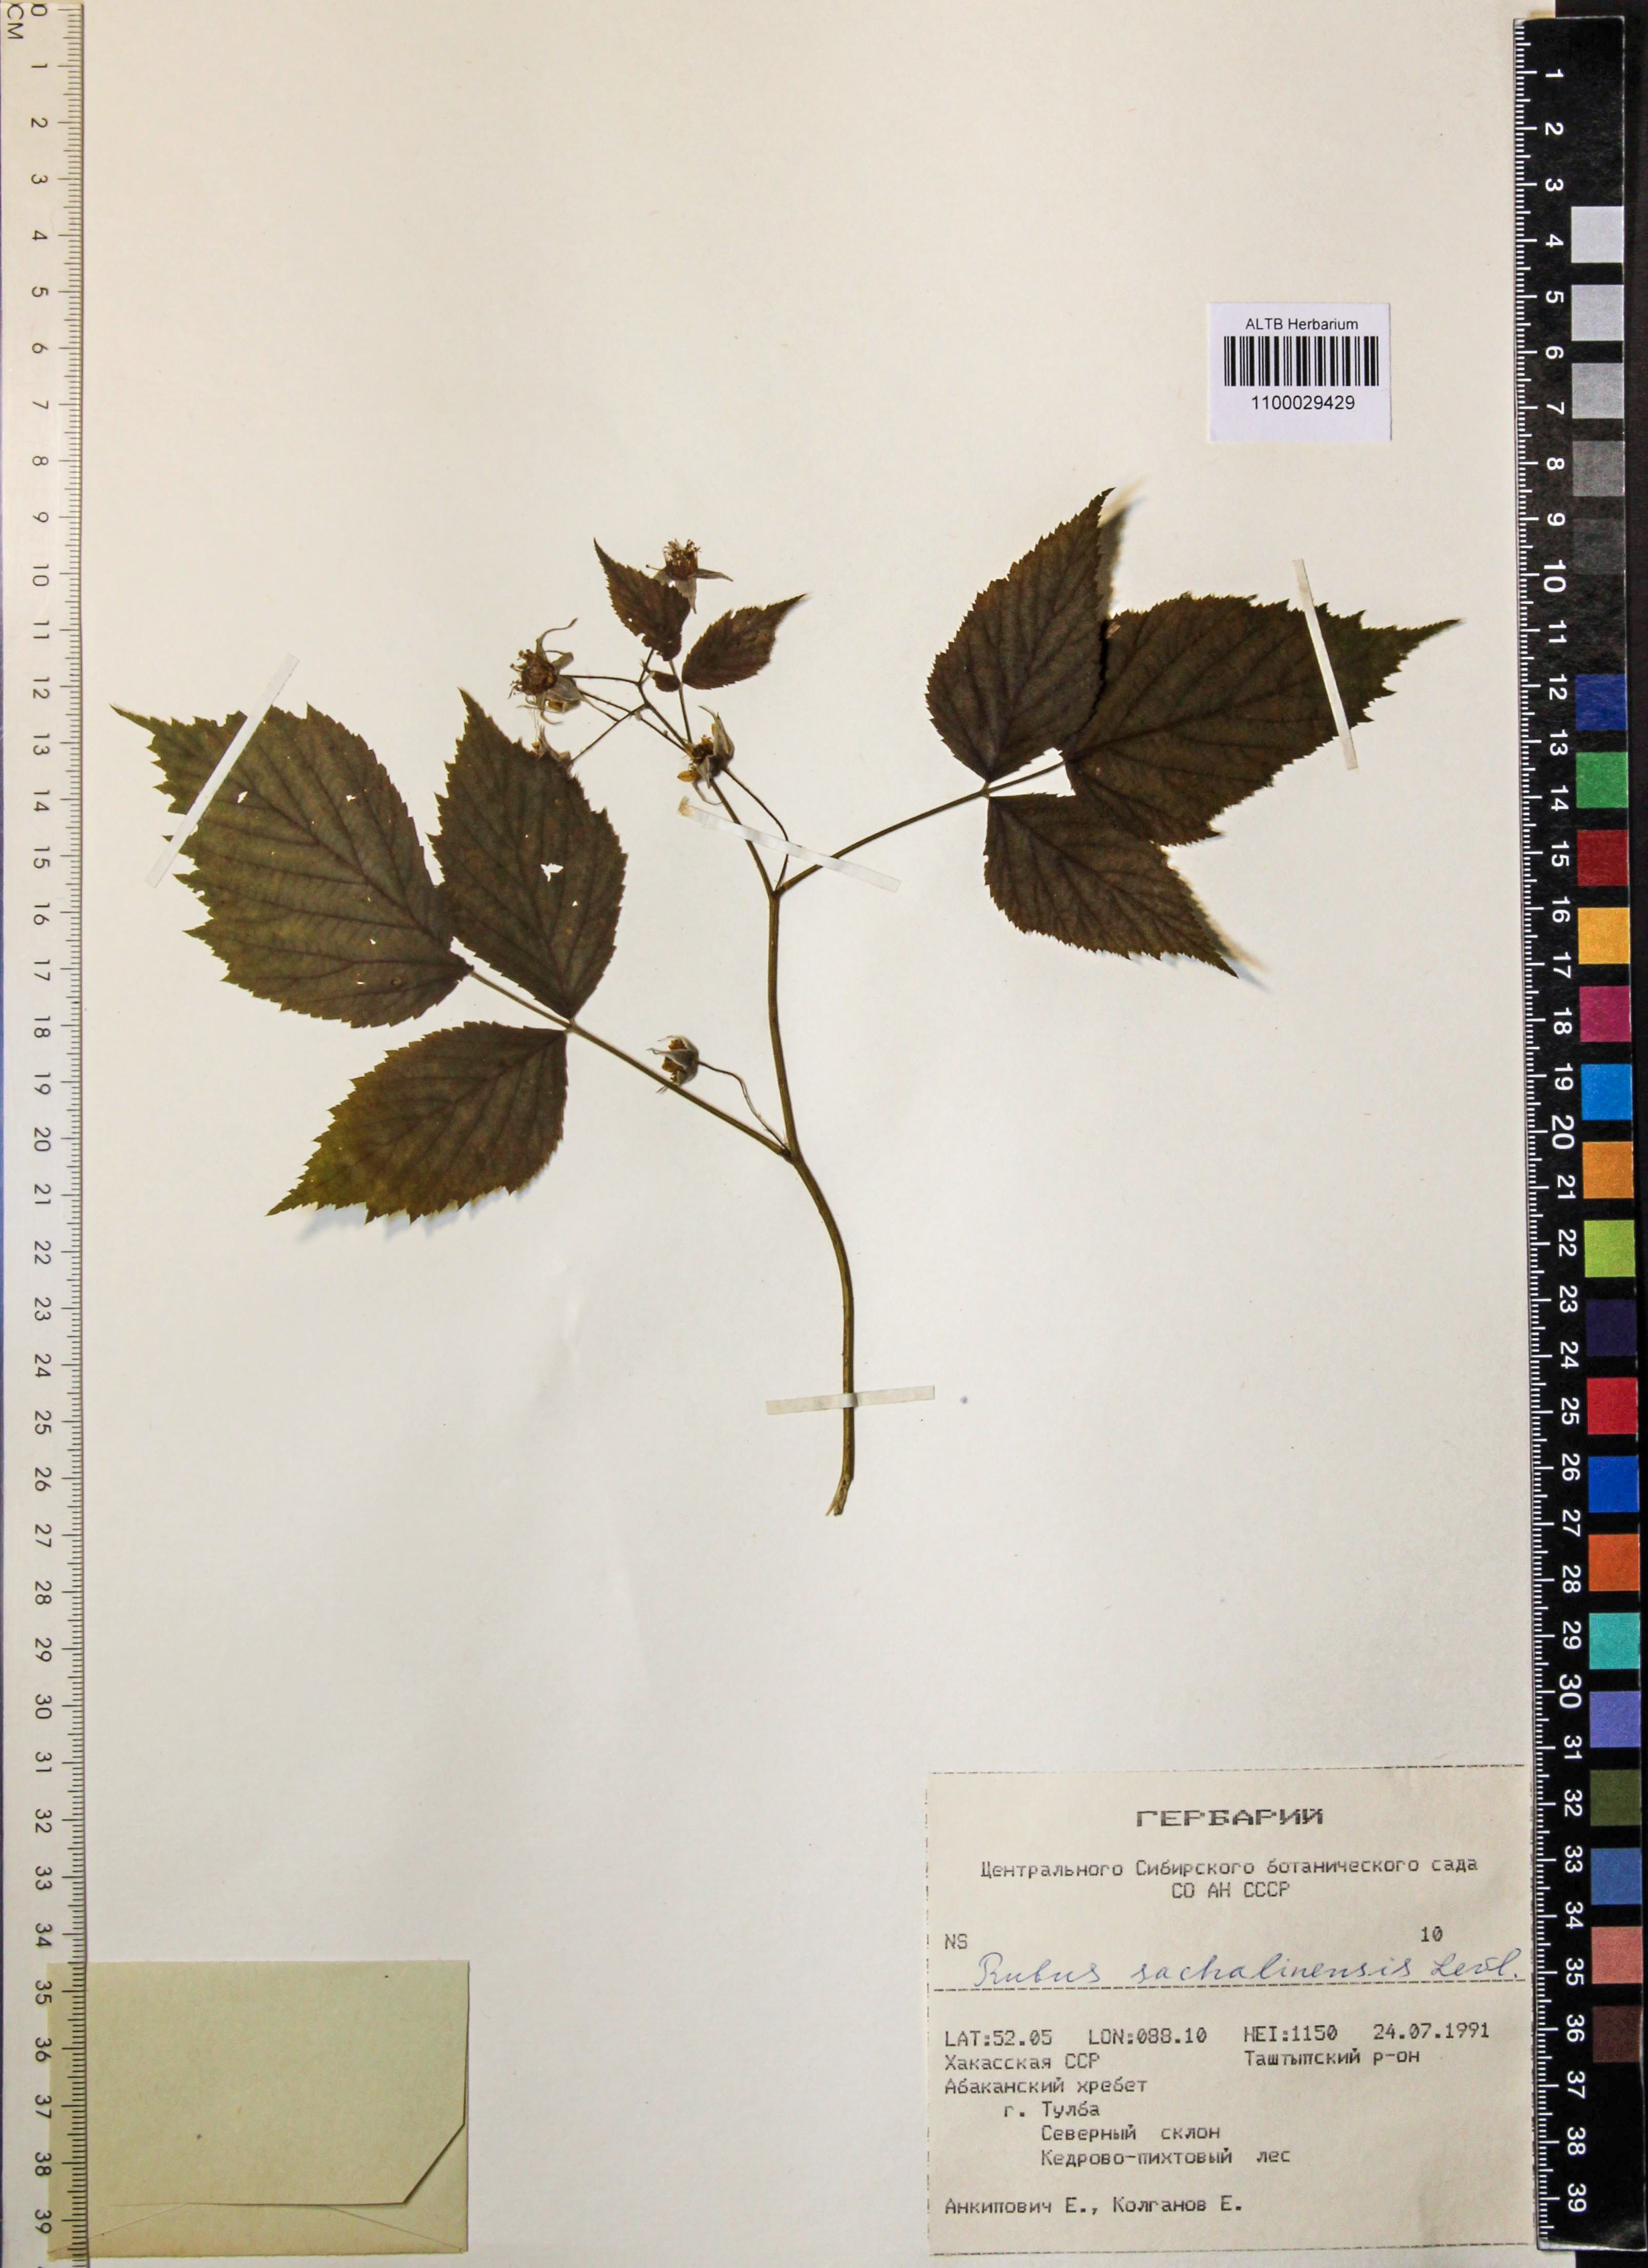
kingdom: Plantae
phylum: Tracheophyta
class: Magnoliopsida
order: Rosales
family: Rosaceae
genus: Rubus
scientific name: Rubus sachalinensis
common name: Red raspberry
